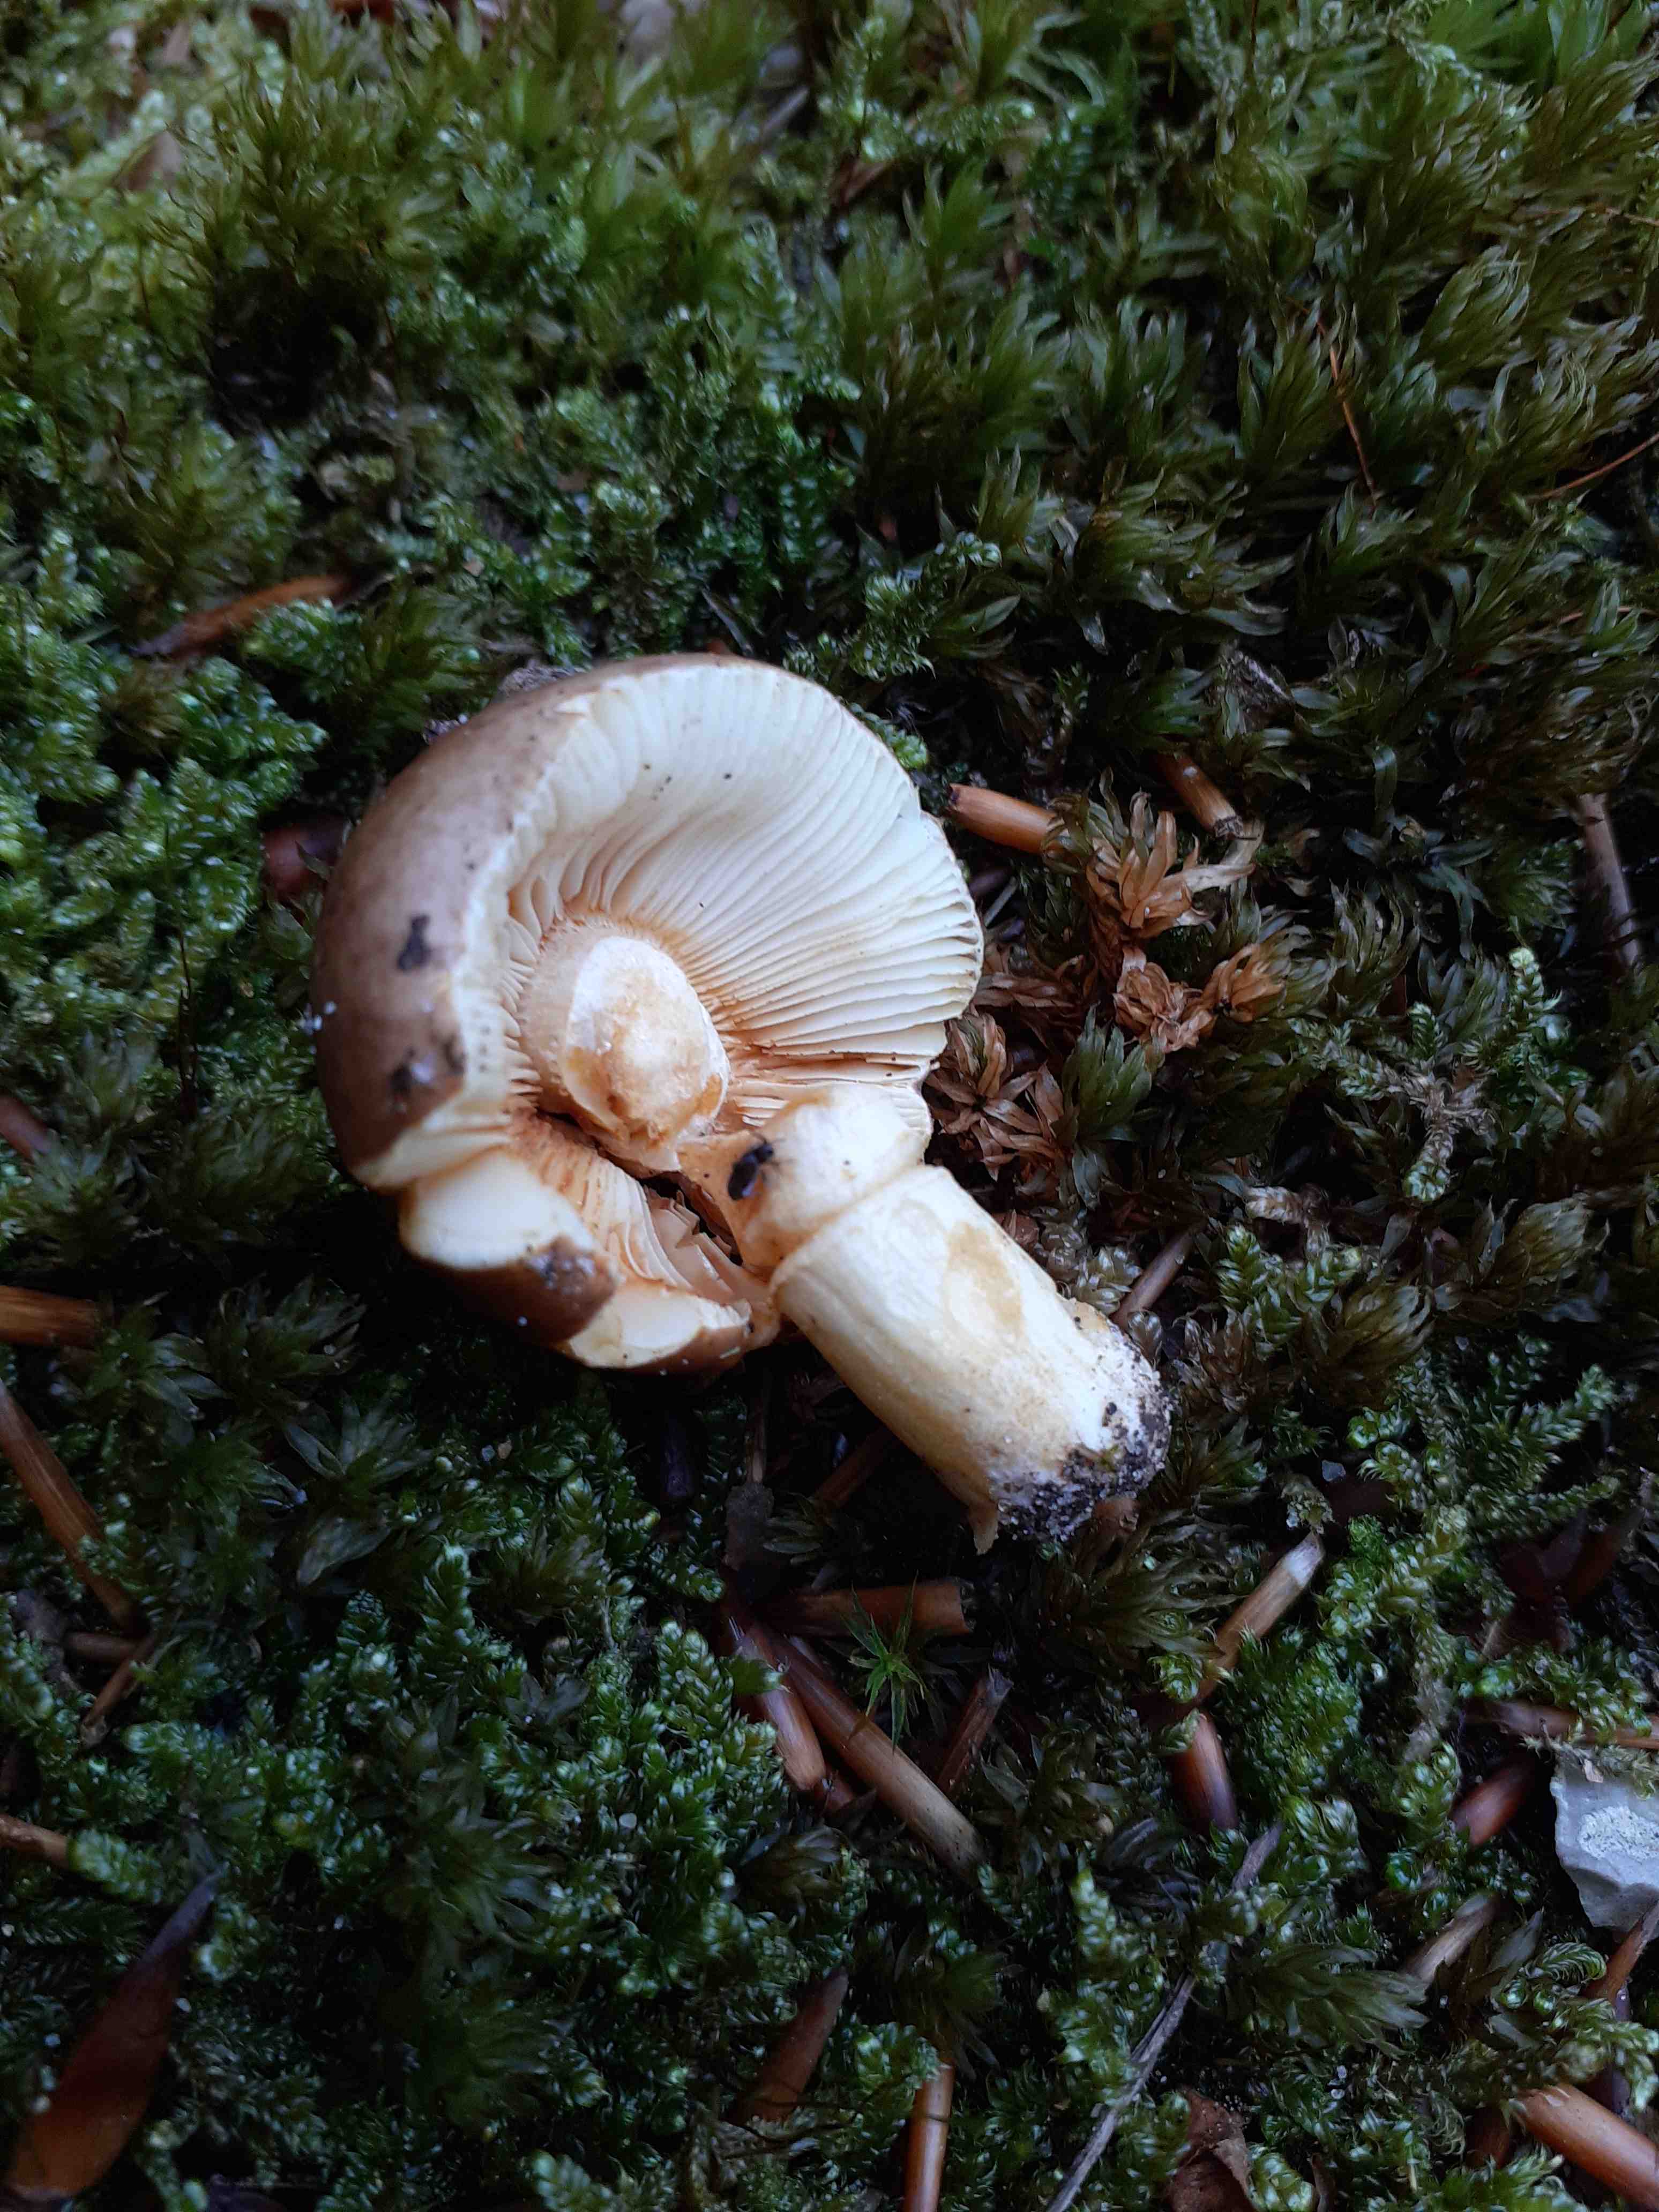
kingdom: Fungi
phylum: Basidiomycota
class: Agaricomycetes
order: Russulales
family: Russulaceae
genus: Russula
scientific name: Russula puellaris
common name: gulstokket skørhat
